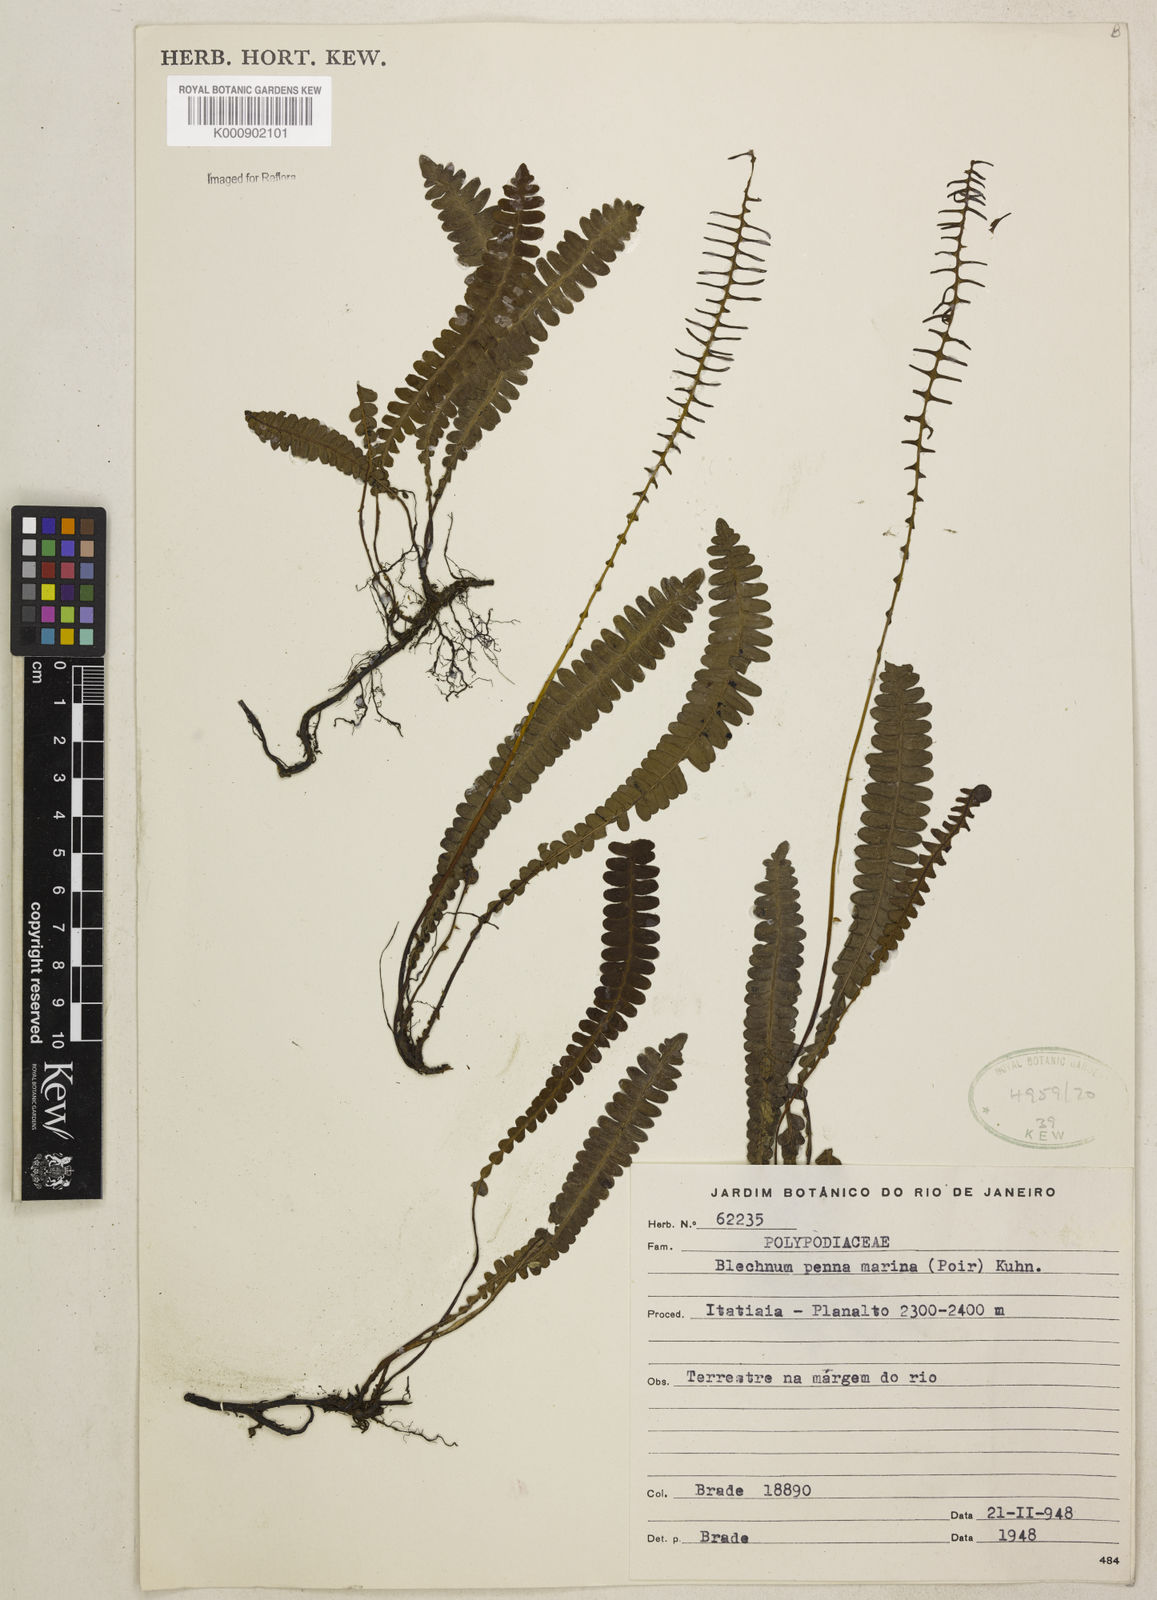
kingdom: Plantae
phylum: Tracheophyta
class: Polypodiopsida
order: Polypodiales
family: Blechnaceae
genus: Austroblechnum
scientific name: Austroblechnum penna-marina
